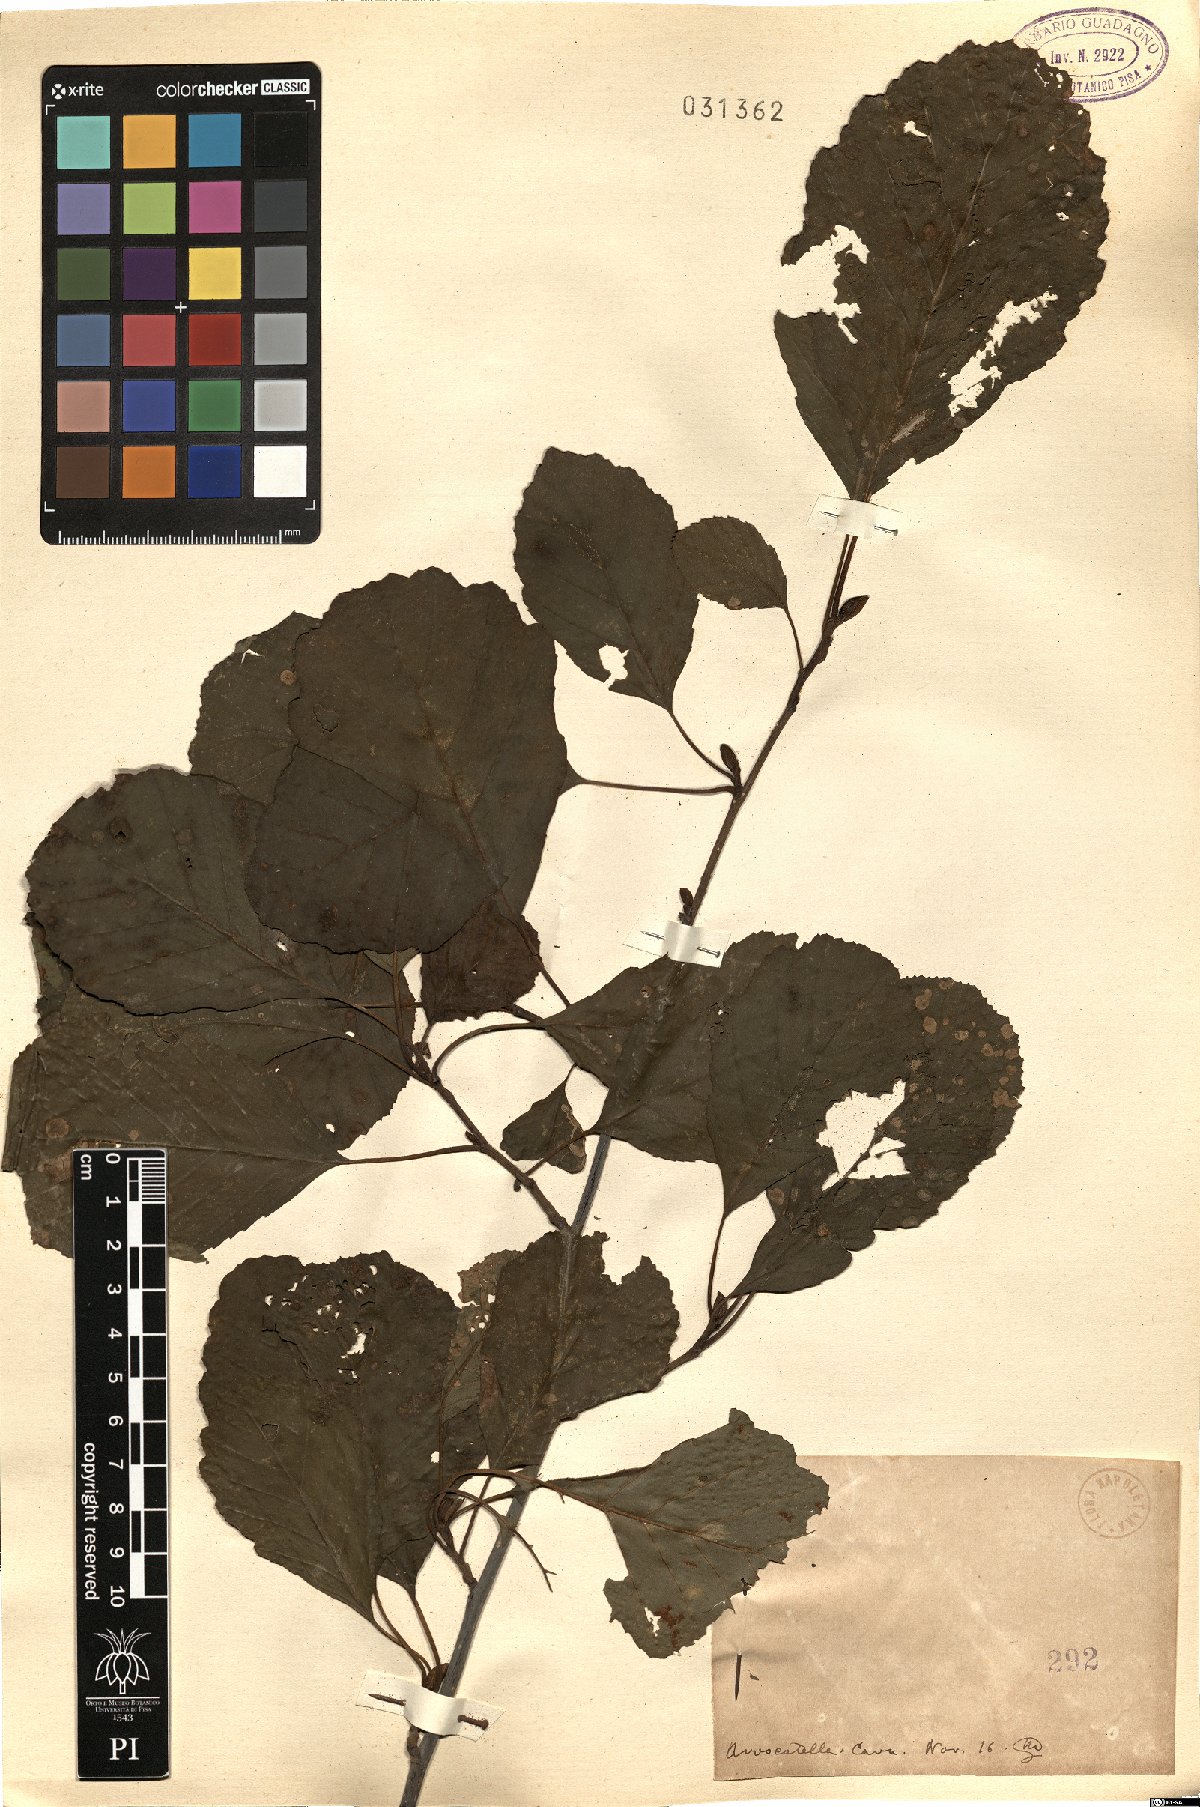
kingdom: Plantae
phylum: Tracheophyta
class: Magnoliopsida
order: Fagales
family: Betulaceae
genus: Alnus
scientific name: Alnus
